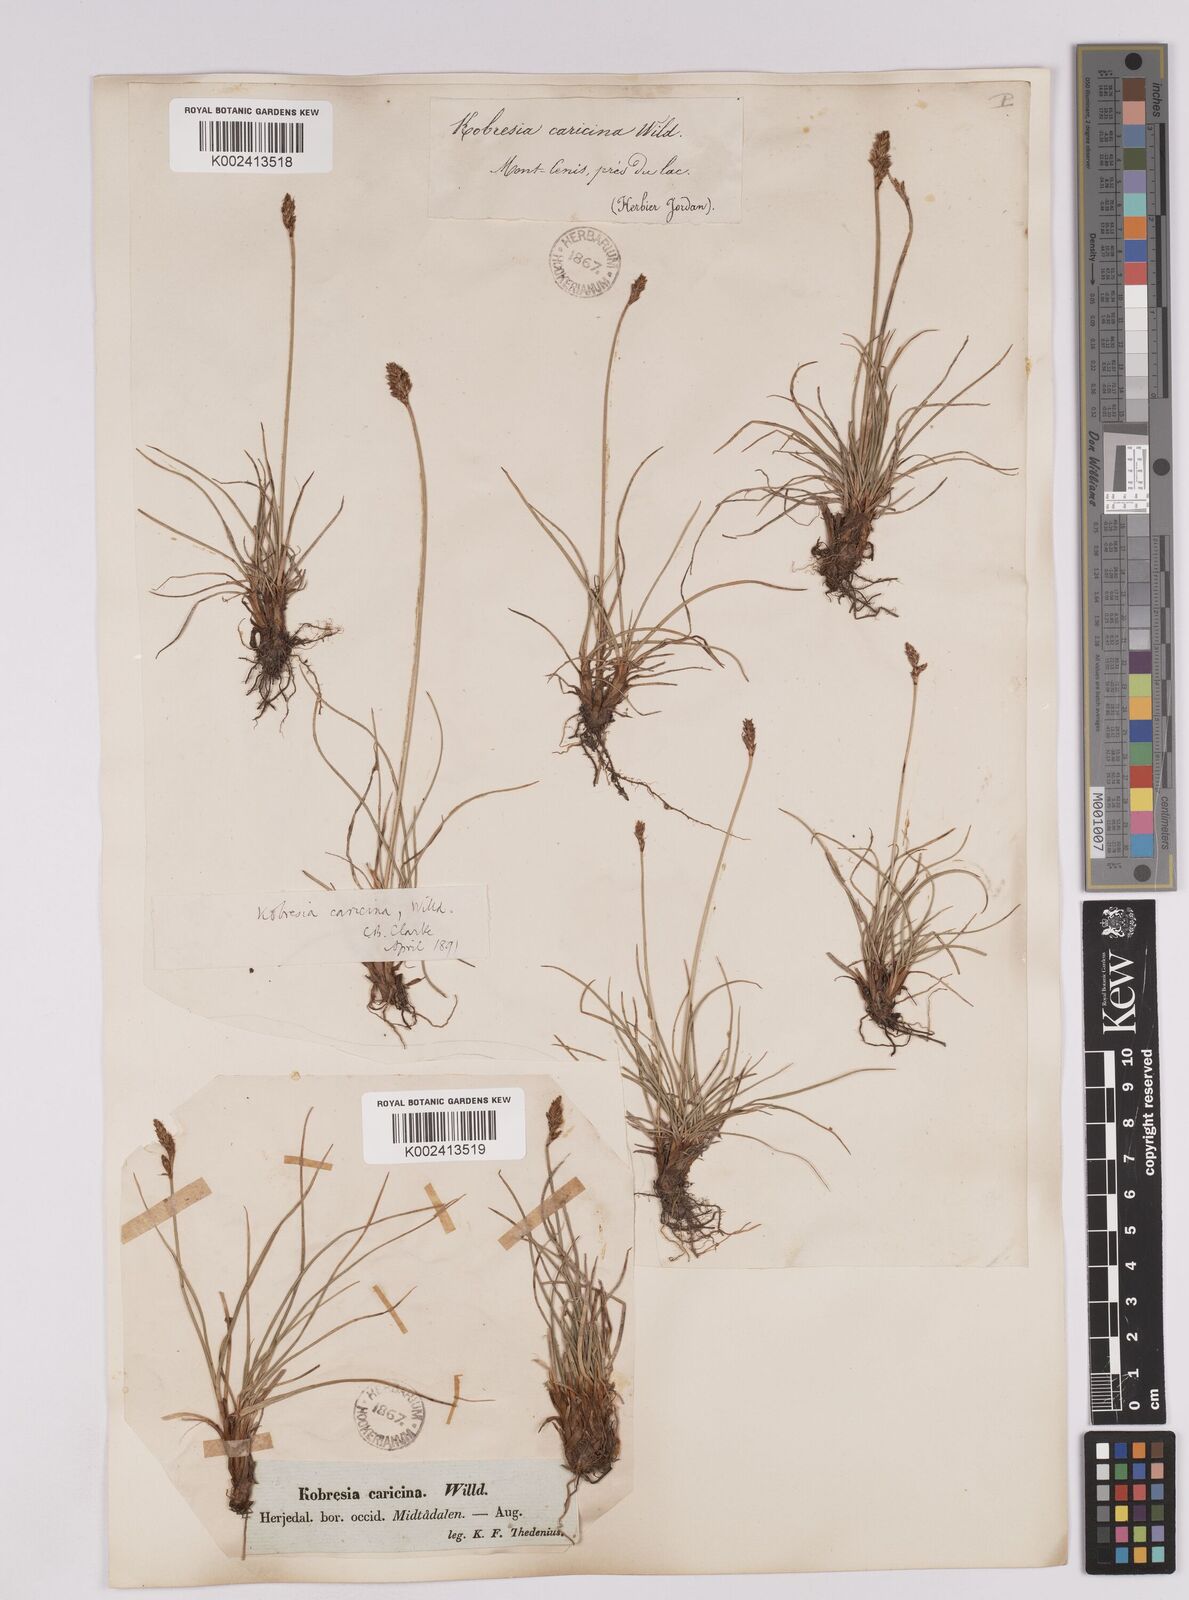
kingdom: Plantae
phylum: Tracheophyta
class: Liliopsida
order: Poales
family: Cyperaceae
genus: Carex
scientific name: Carex simpliciuscula
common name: Simple bog sedge
